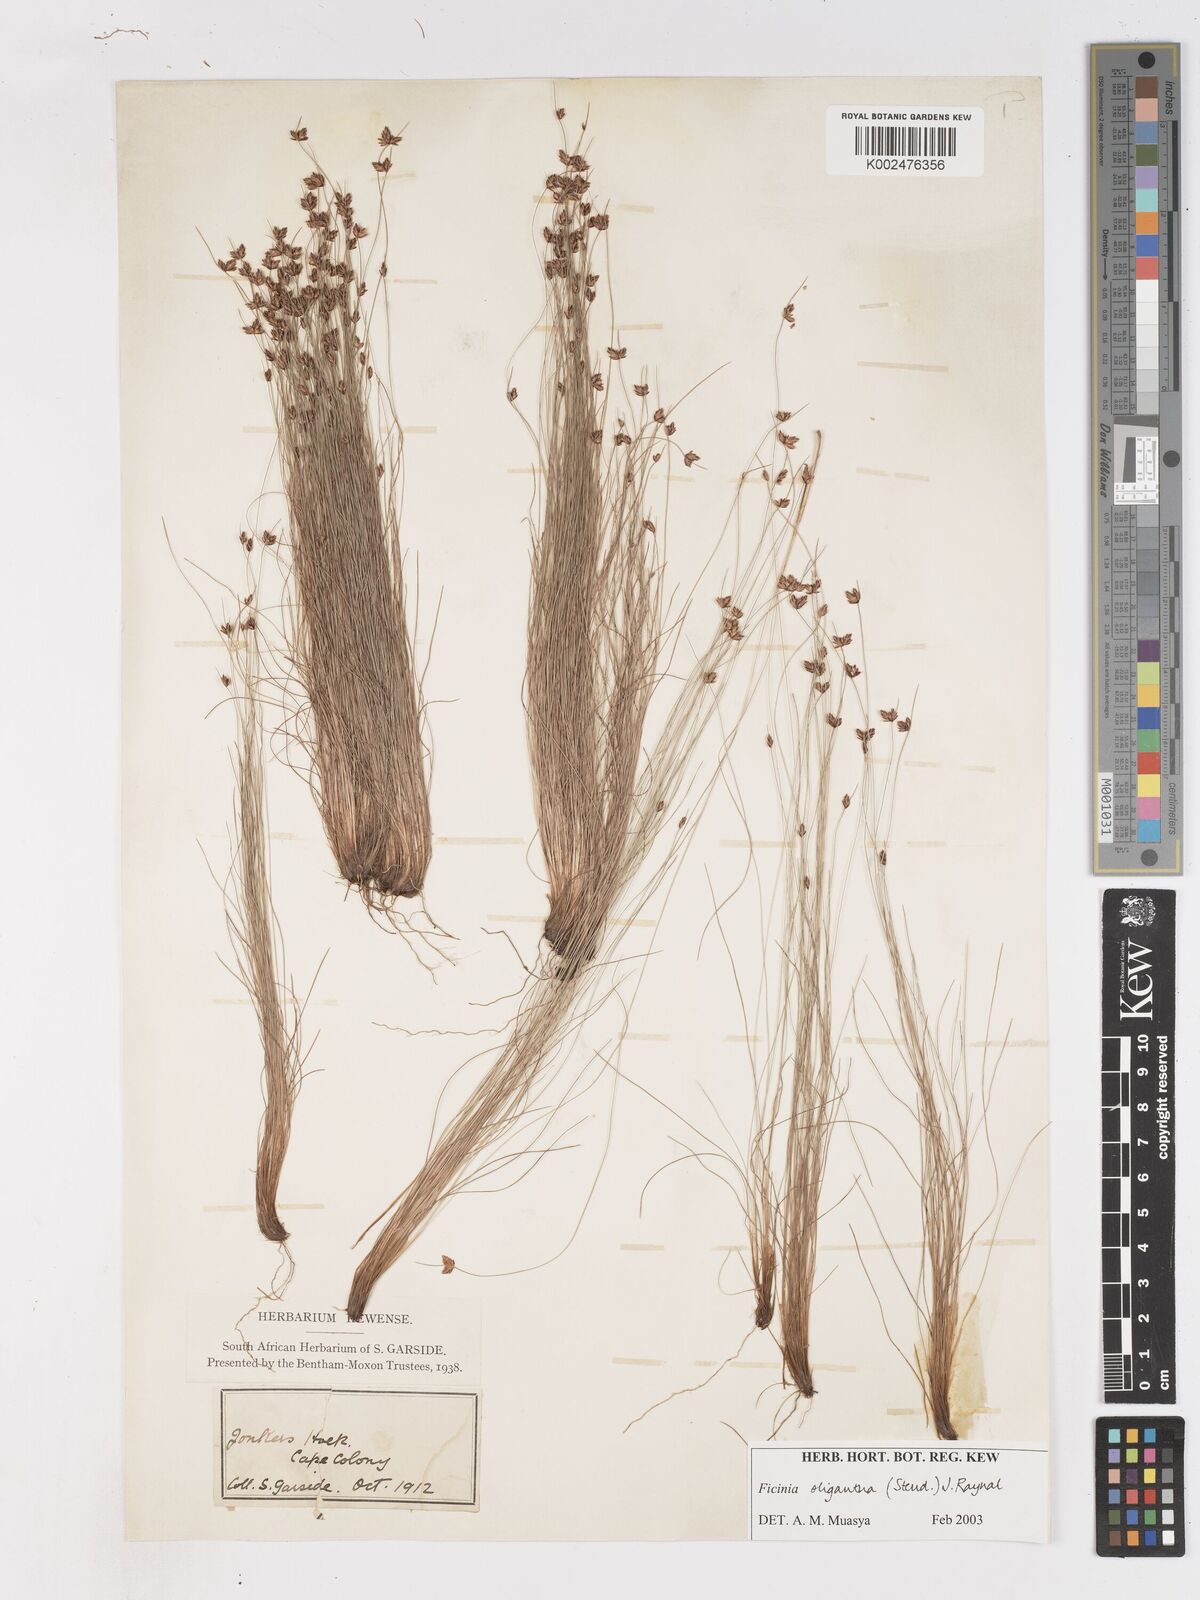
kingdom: Plantae
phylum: Tracheophyta
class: Liliopsida
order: Poales
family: Cyperaceae
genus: Ficinia
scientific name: Ficinia oligantha
